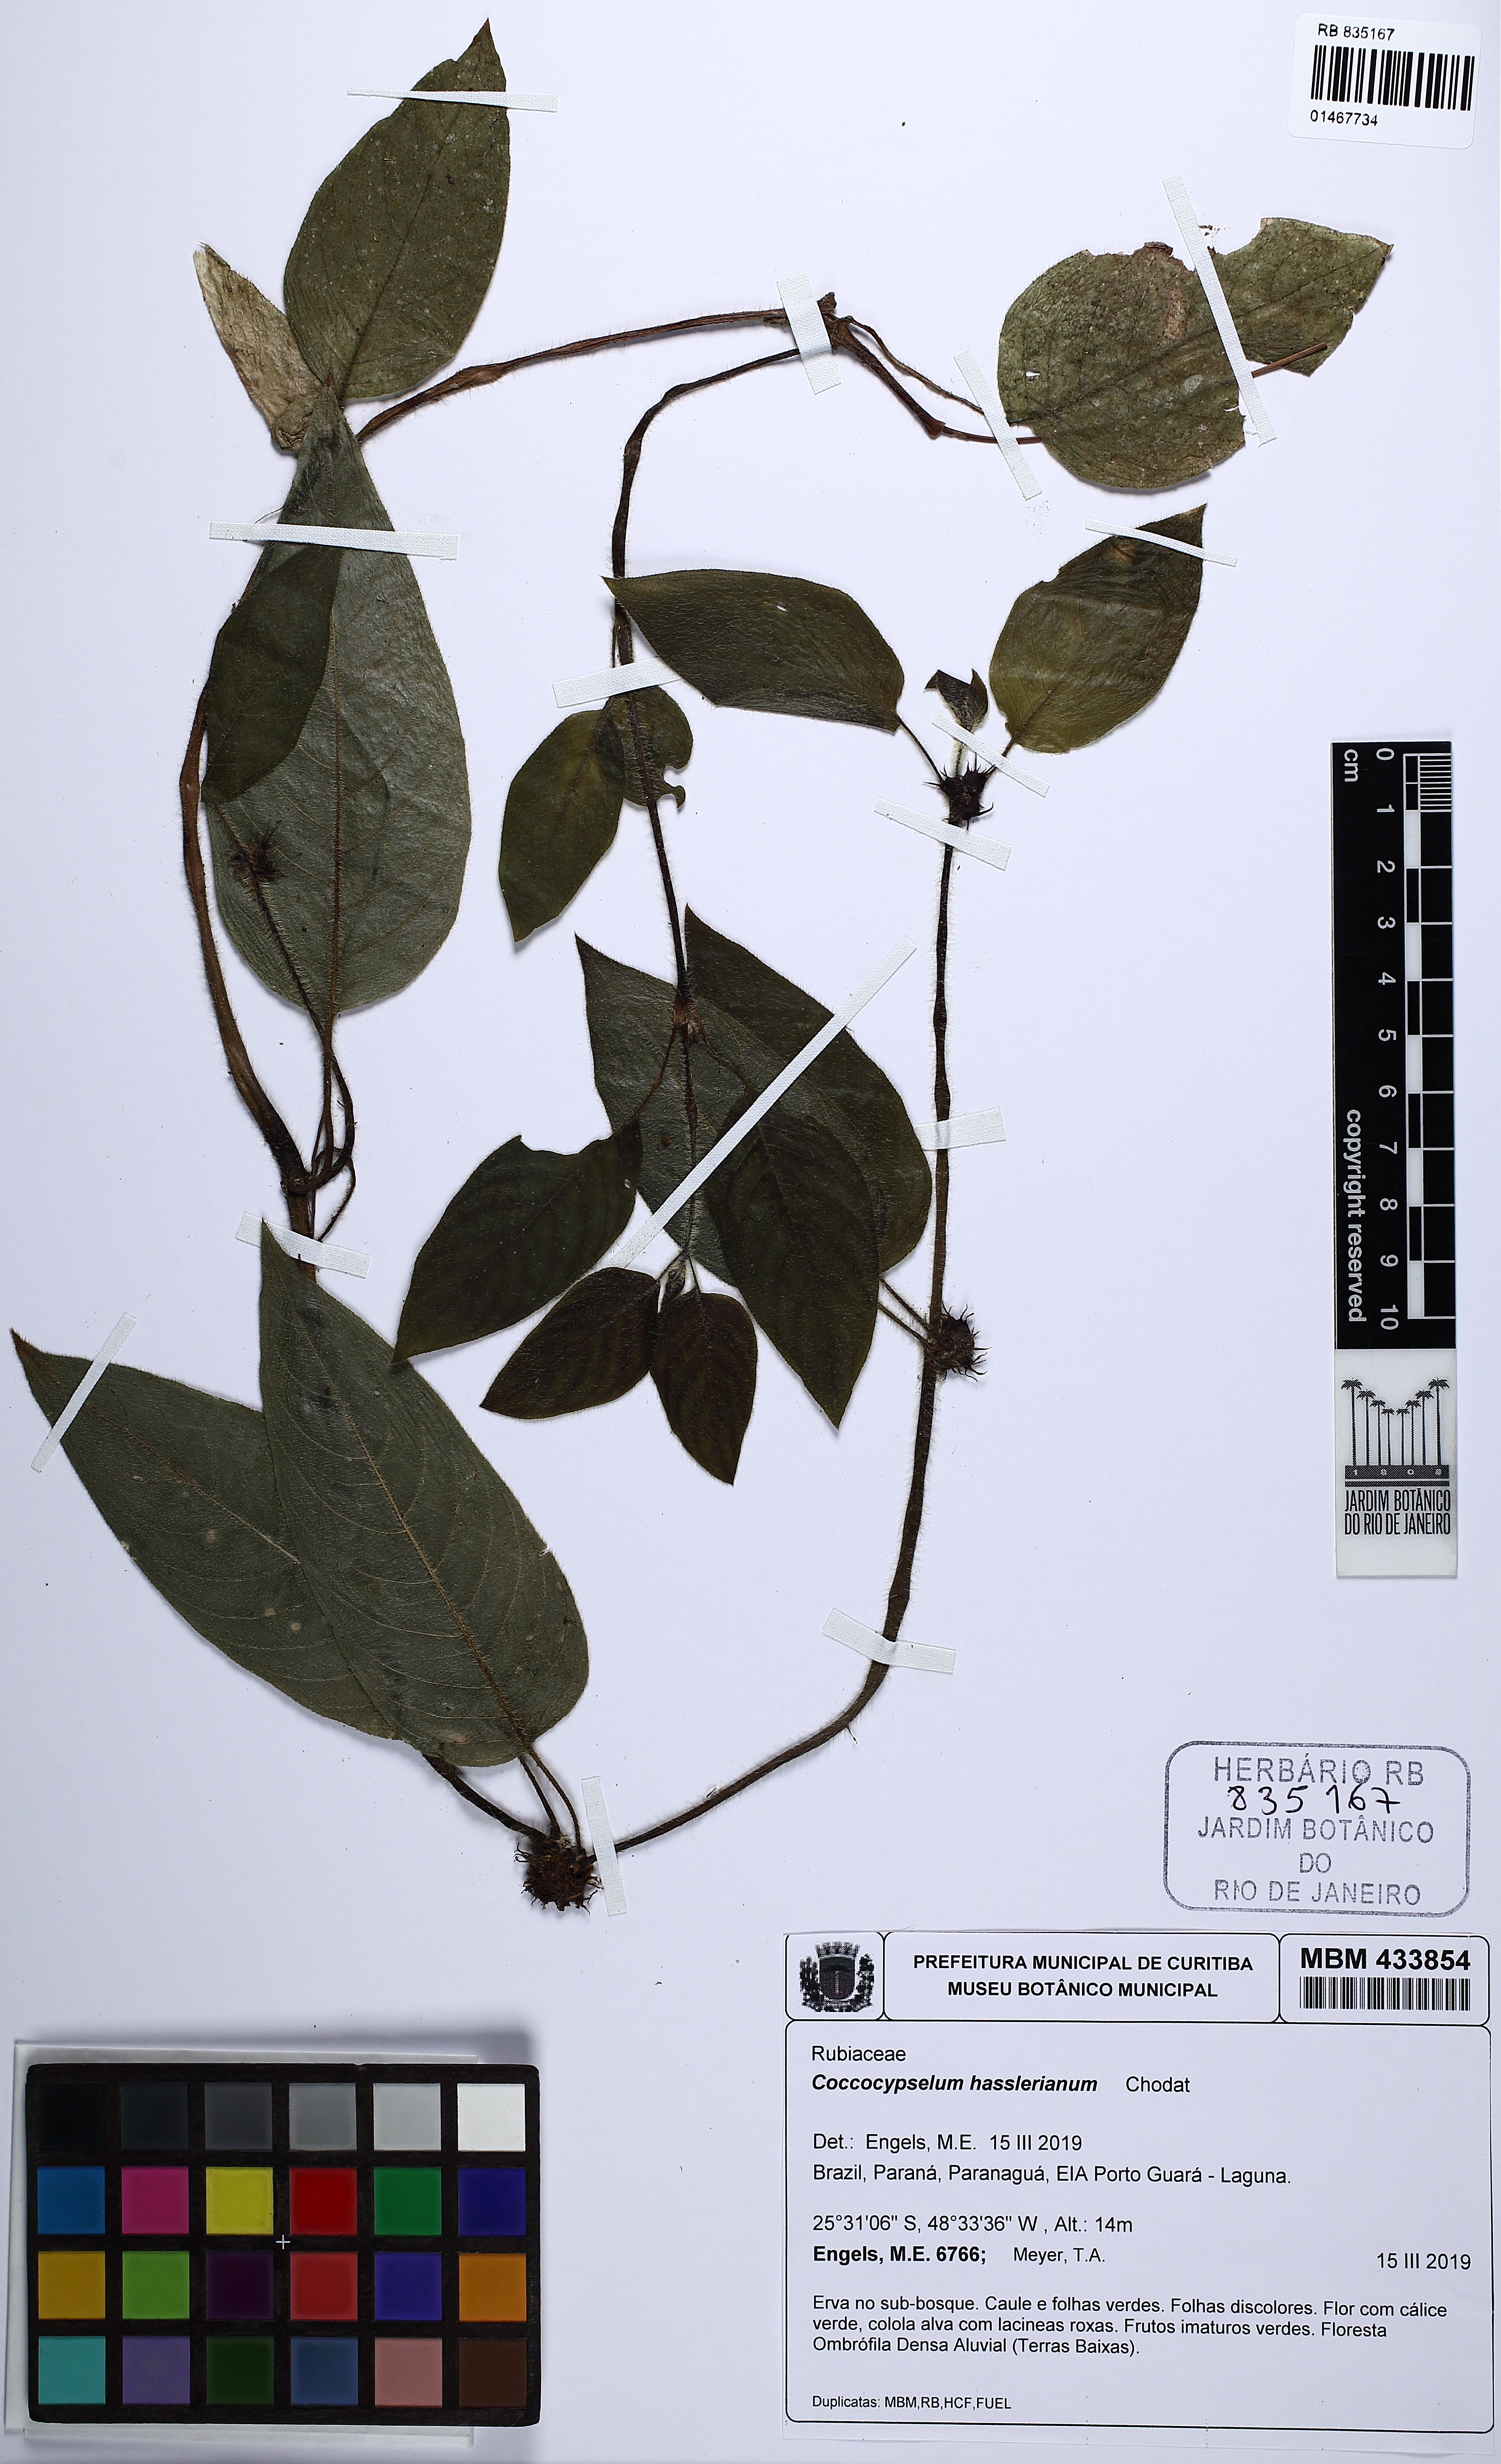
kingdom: Plantae
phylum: Tracheophyta
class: Magnoliopsida
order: Gentianales
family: Rubiaceae
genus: Coccocypselum
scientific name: Coccocypselum hasslerianum
